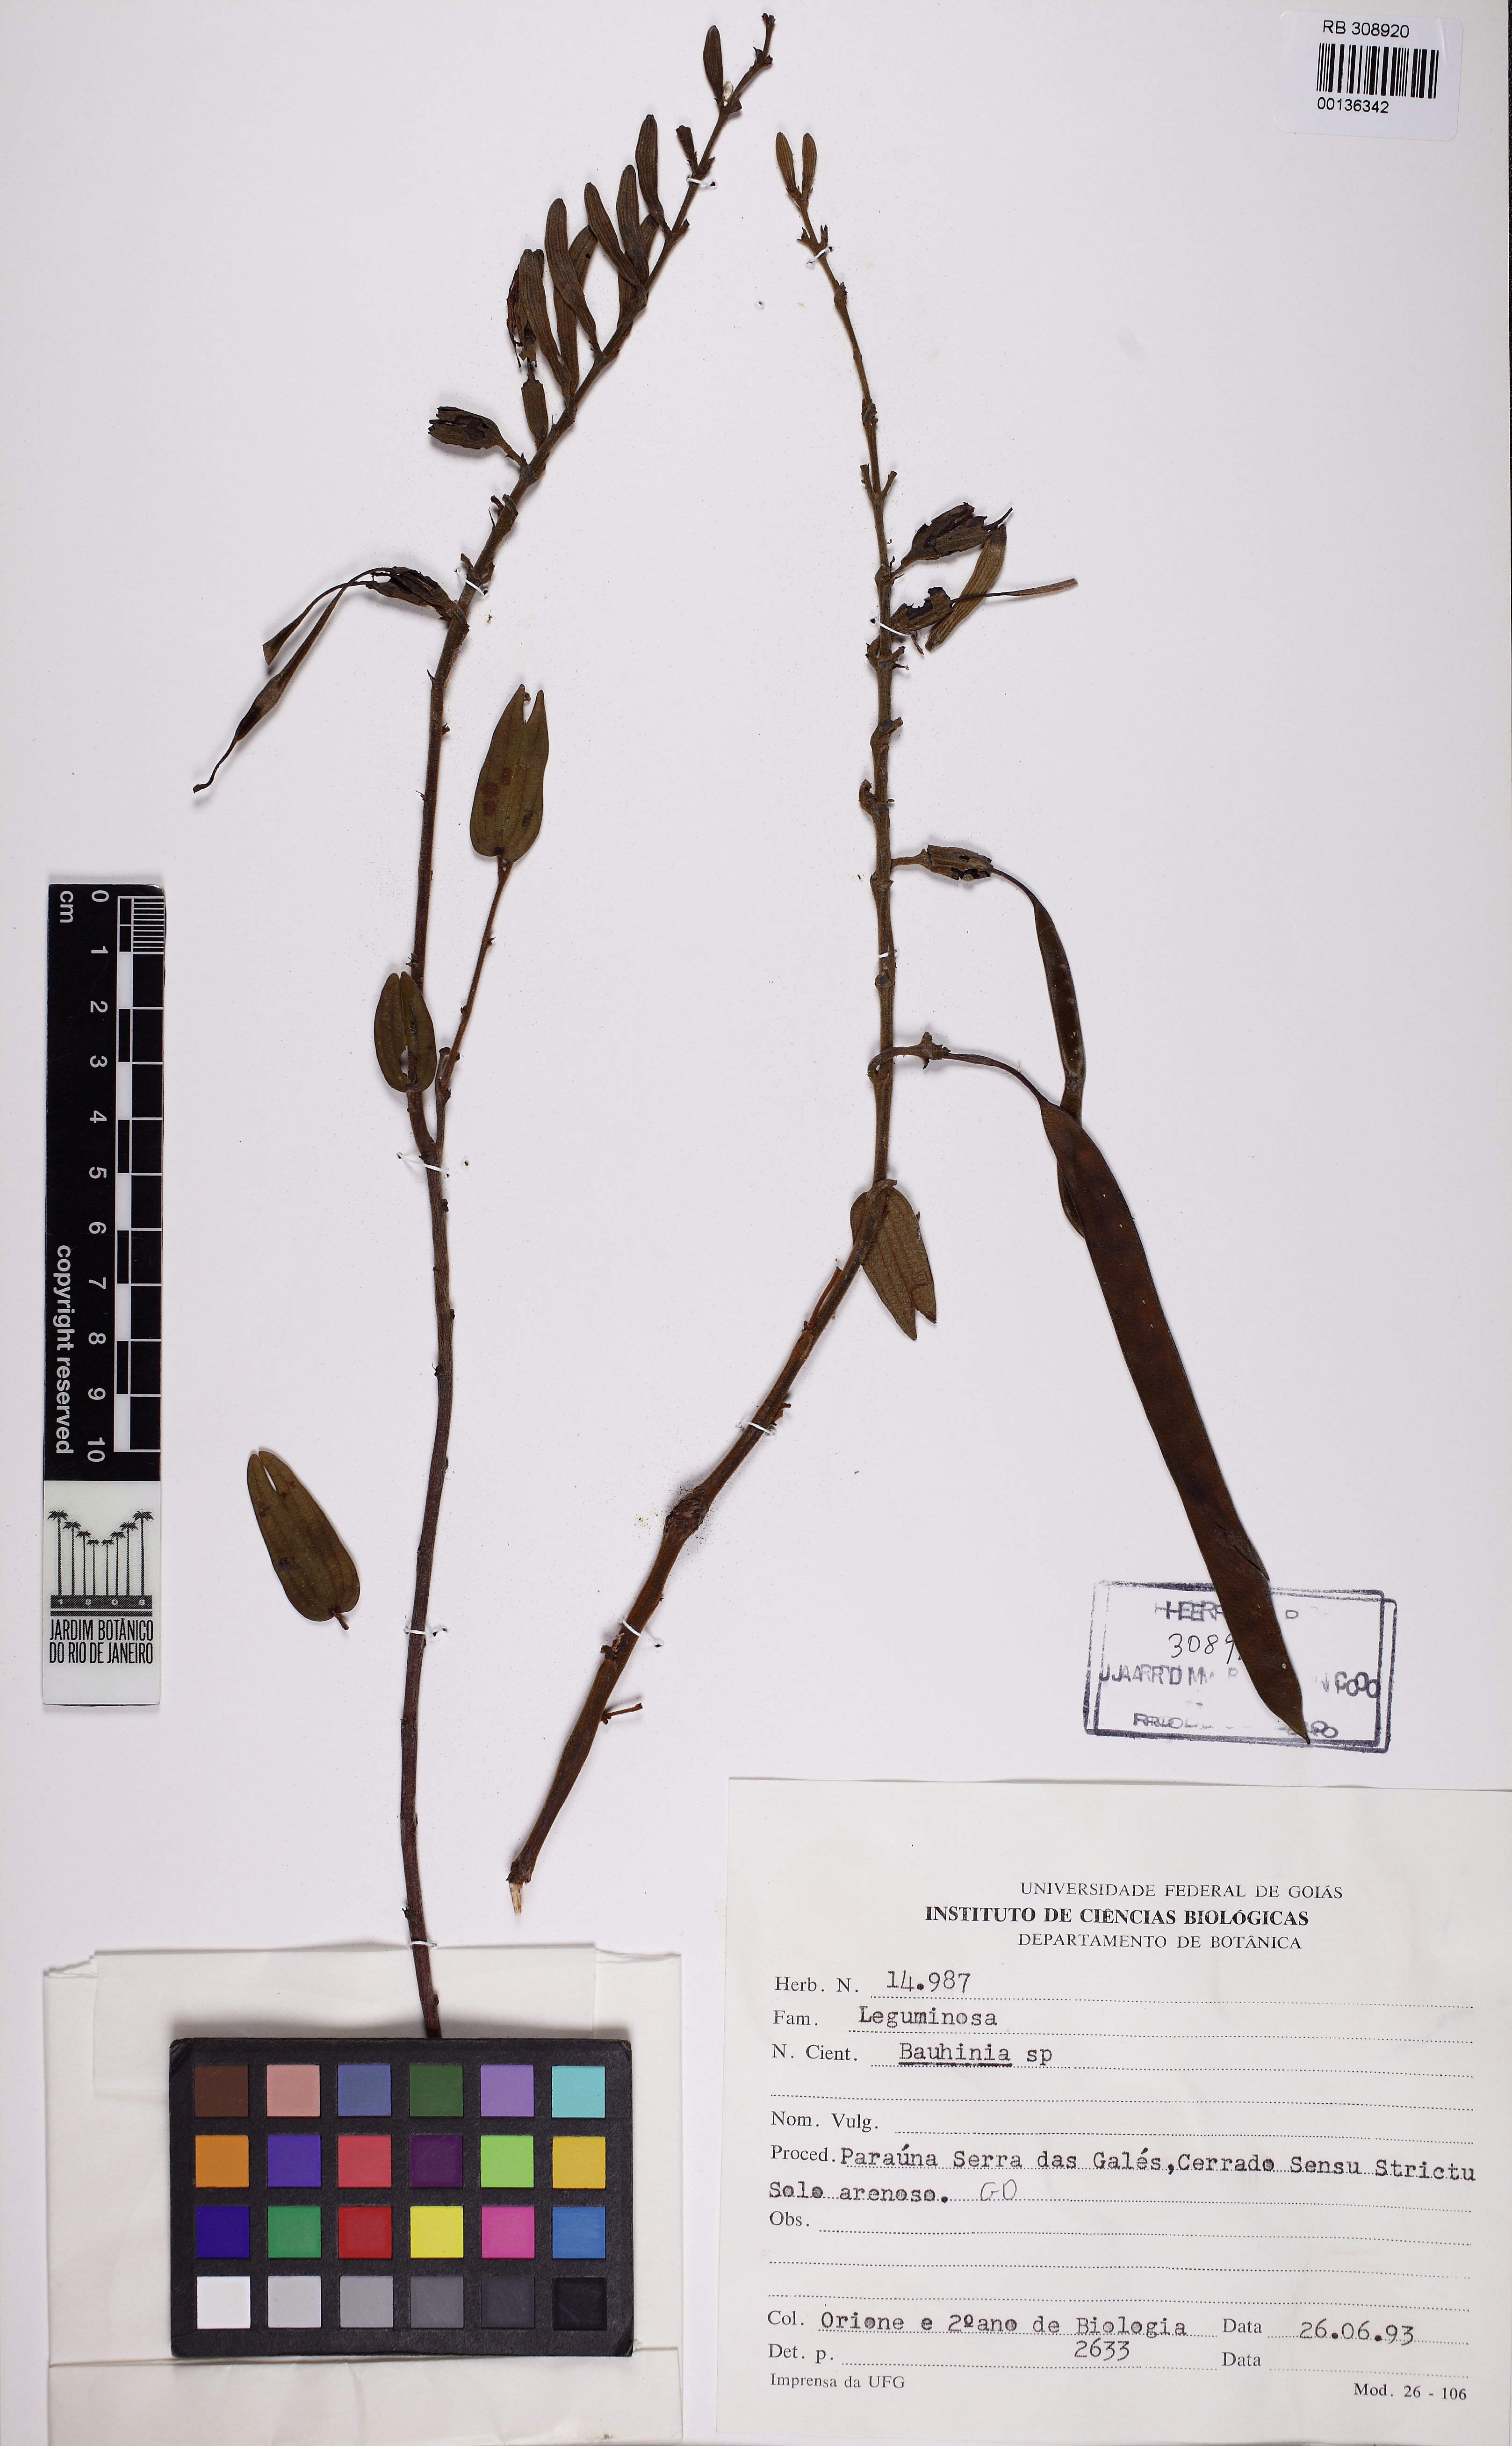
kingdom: Plantae
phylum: Tracheophyta
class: Magnoliopsida
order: Fabales
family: Fabaceae
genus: Bauhinia
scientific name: Bauhinia
